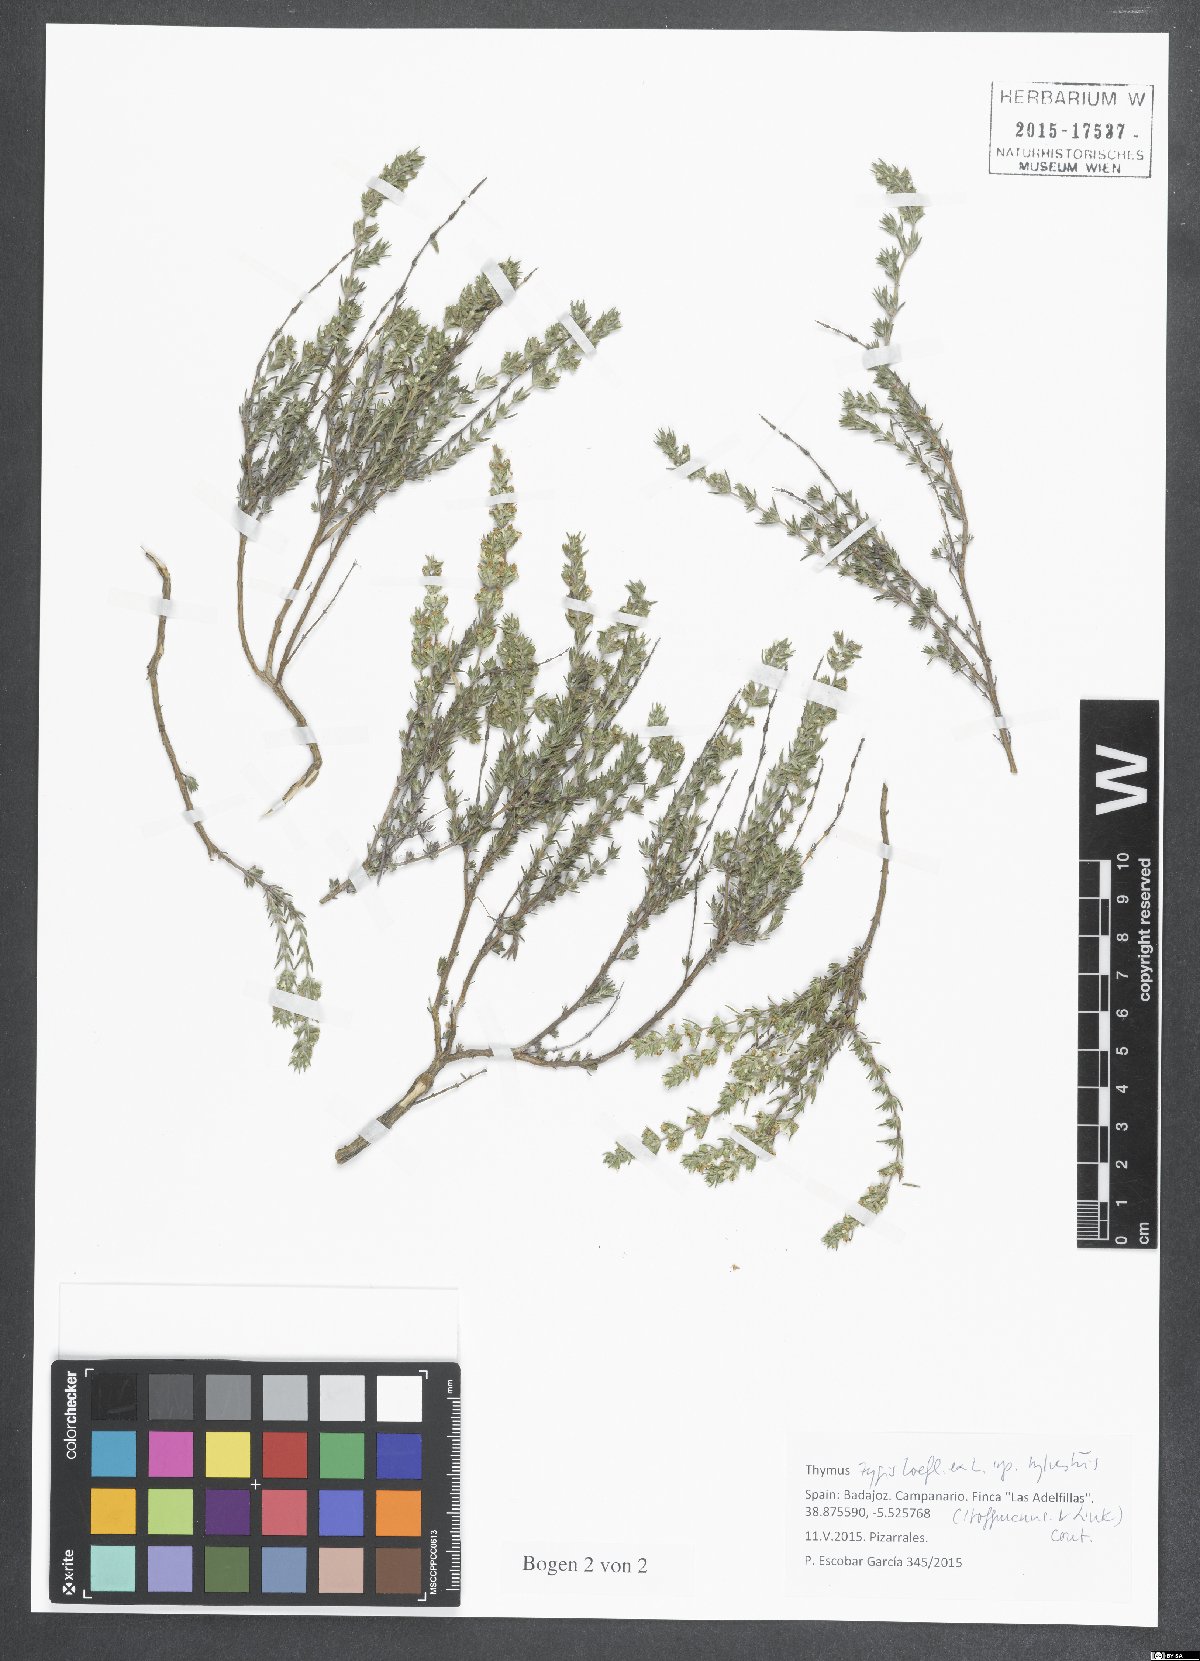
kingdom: Plantae
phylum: Tracheophyta
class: Magnoliopsida
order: Lamiales
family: Lamiaceae
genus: Thymus
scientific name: Thymus zygis
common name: White thyme
